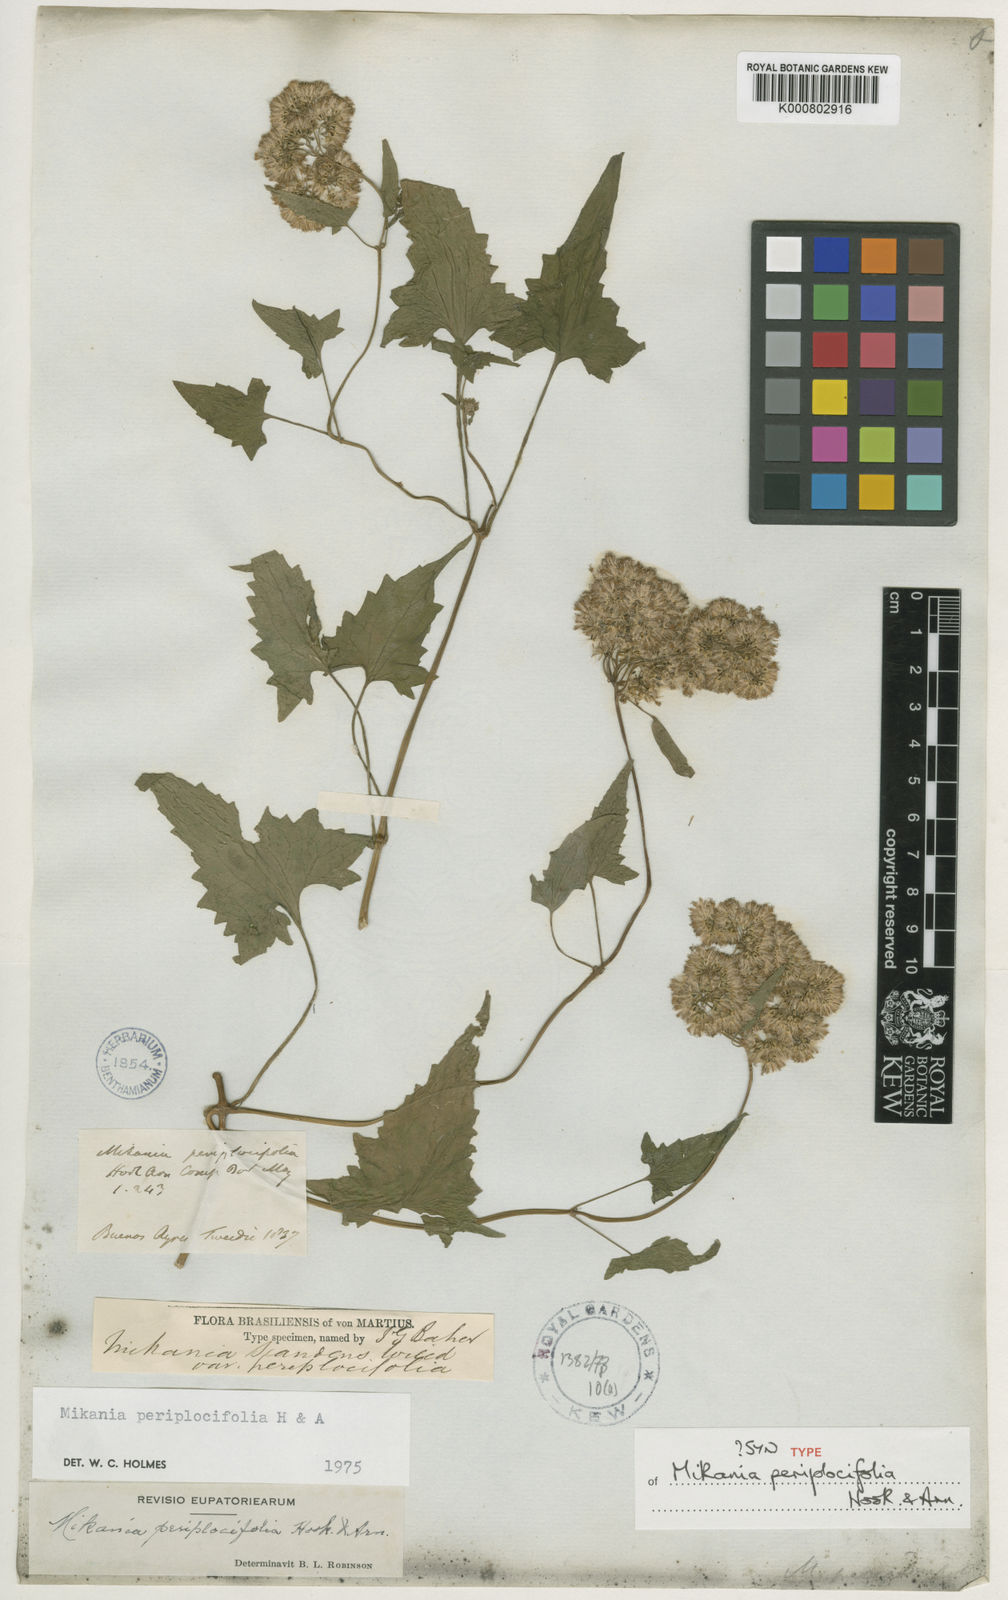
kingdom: Plantae
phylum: Tracheophyta
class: Magnoliopsida
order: Asterales
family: Asteraceae
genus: Mikania
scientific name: Mikania periplocifolia
